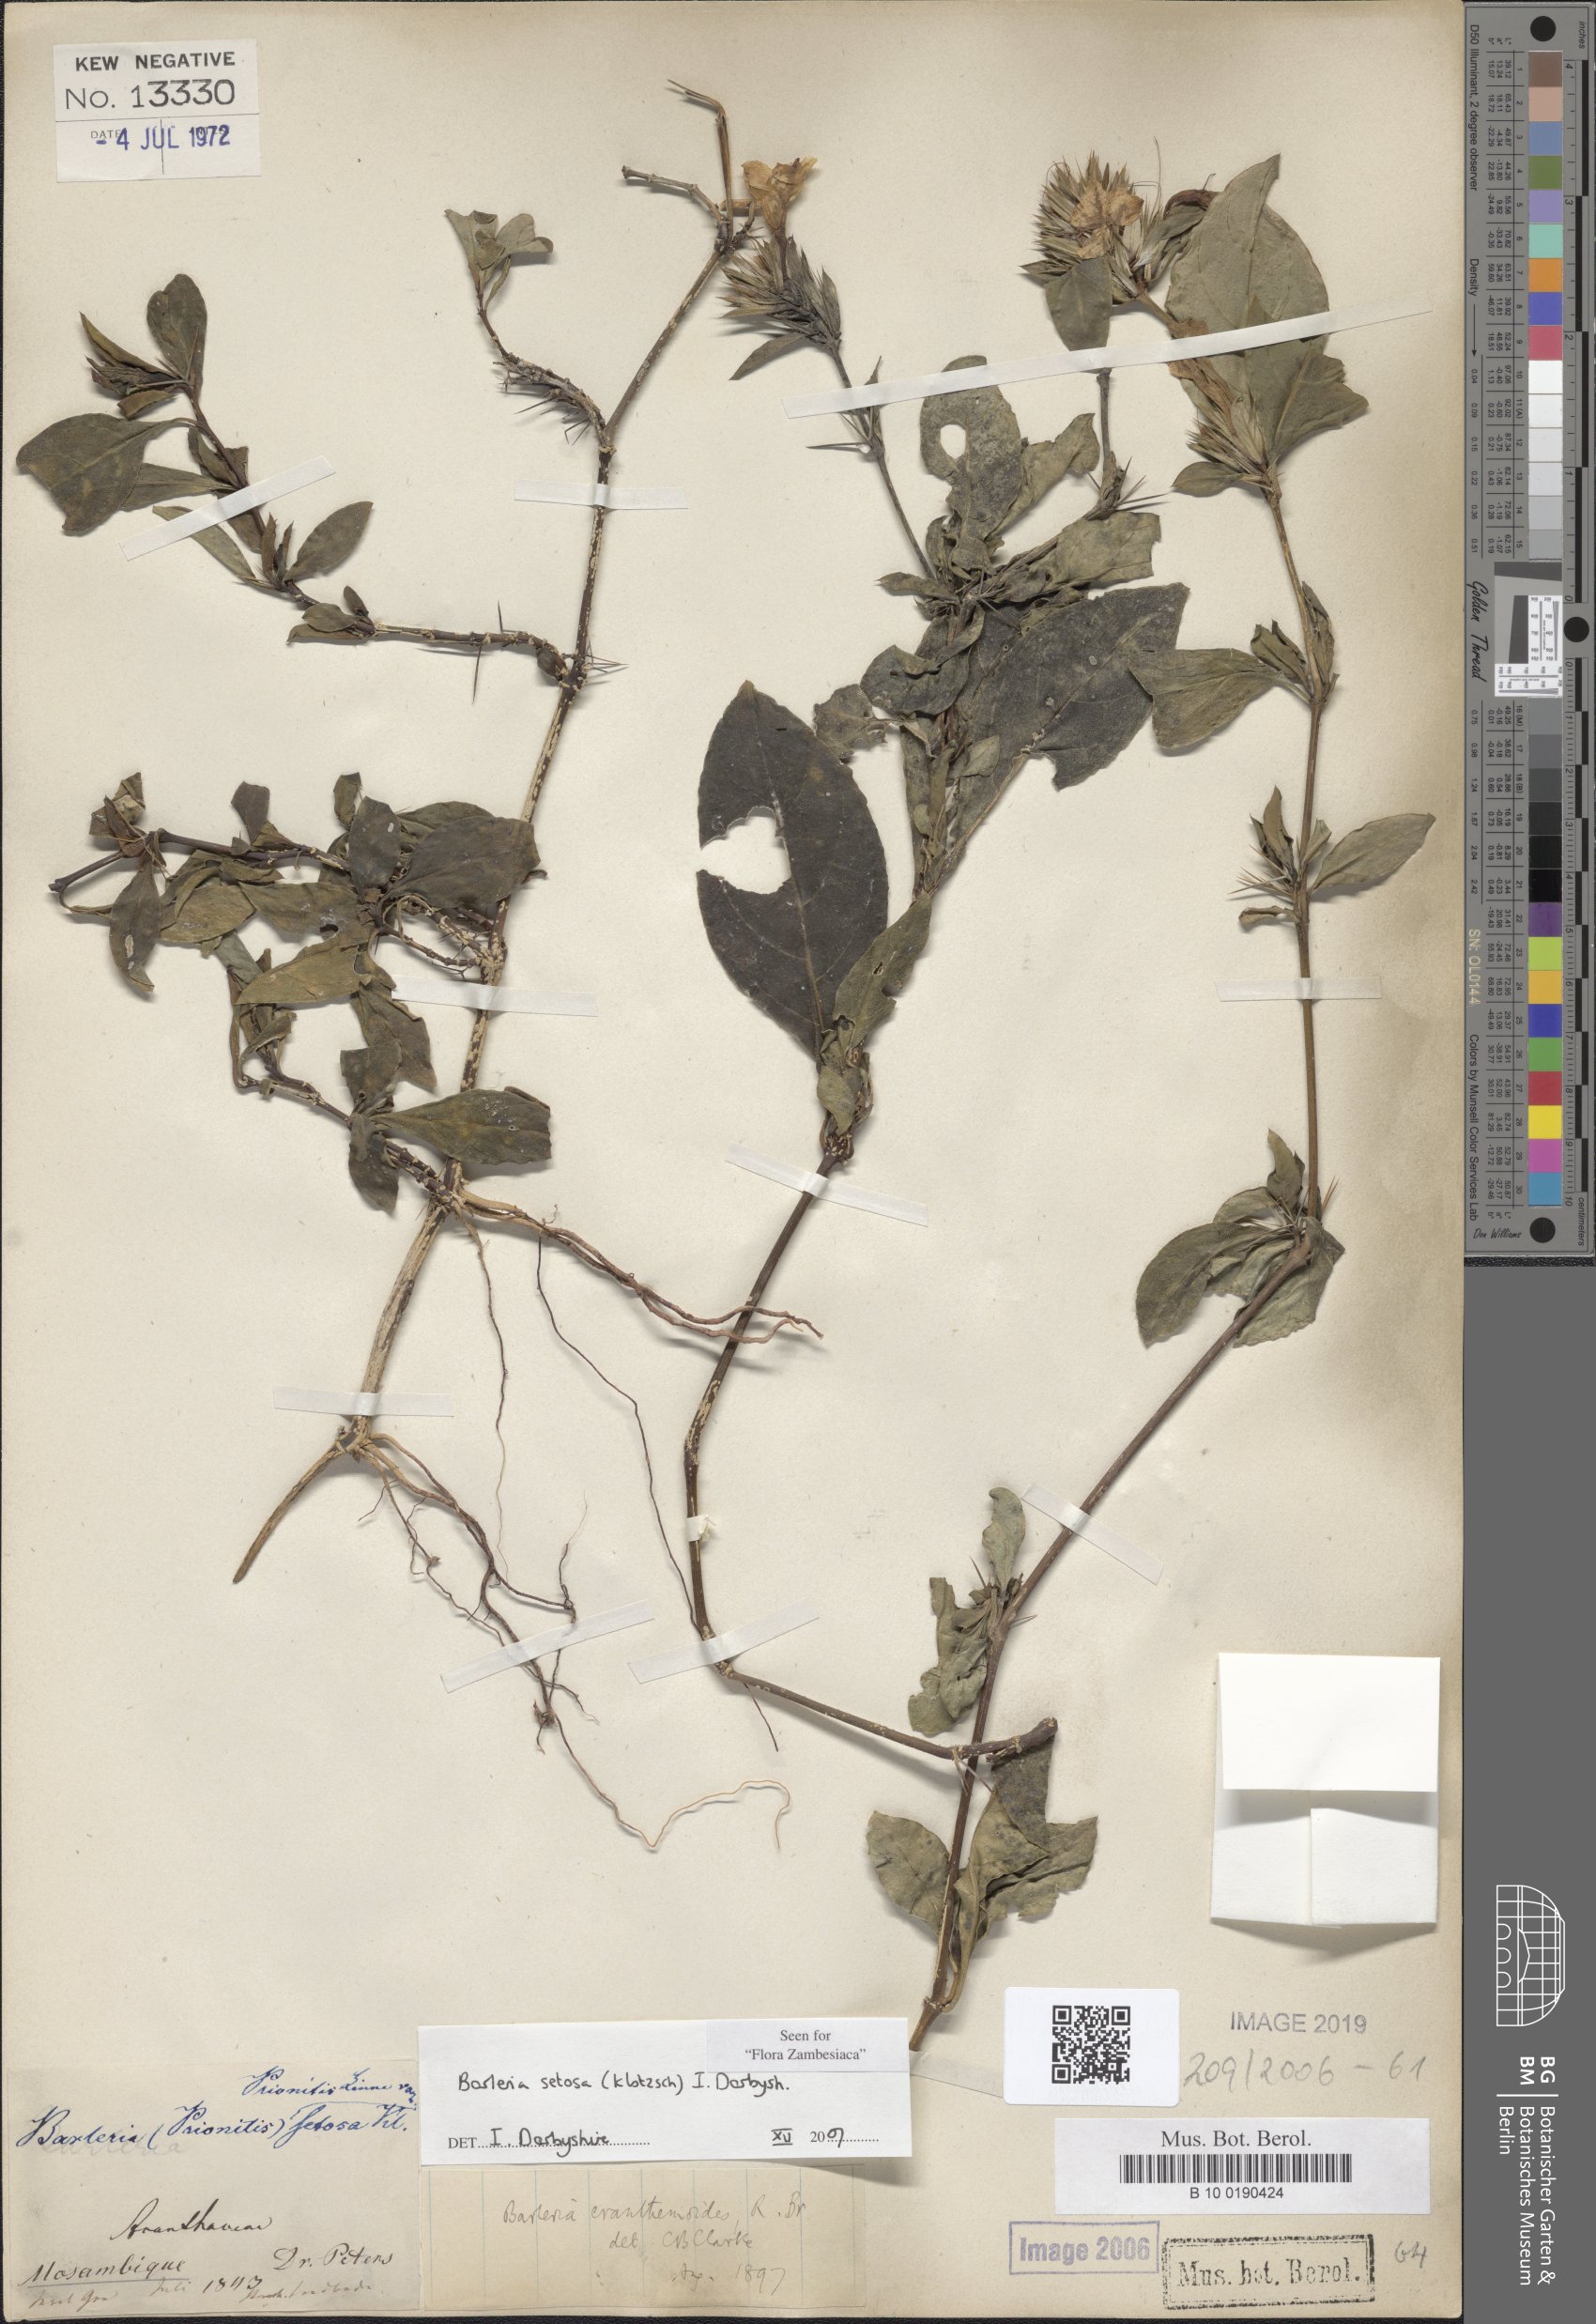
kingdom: Plantae
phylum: Tracheophyta
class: Magnoliopsida
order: Lamiales
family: Acanthaceae
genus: Barleria
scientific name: Barleria setosa
